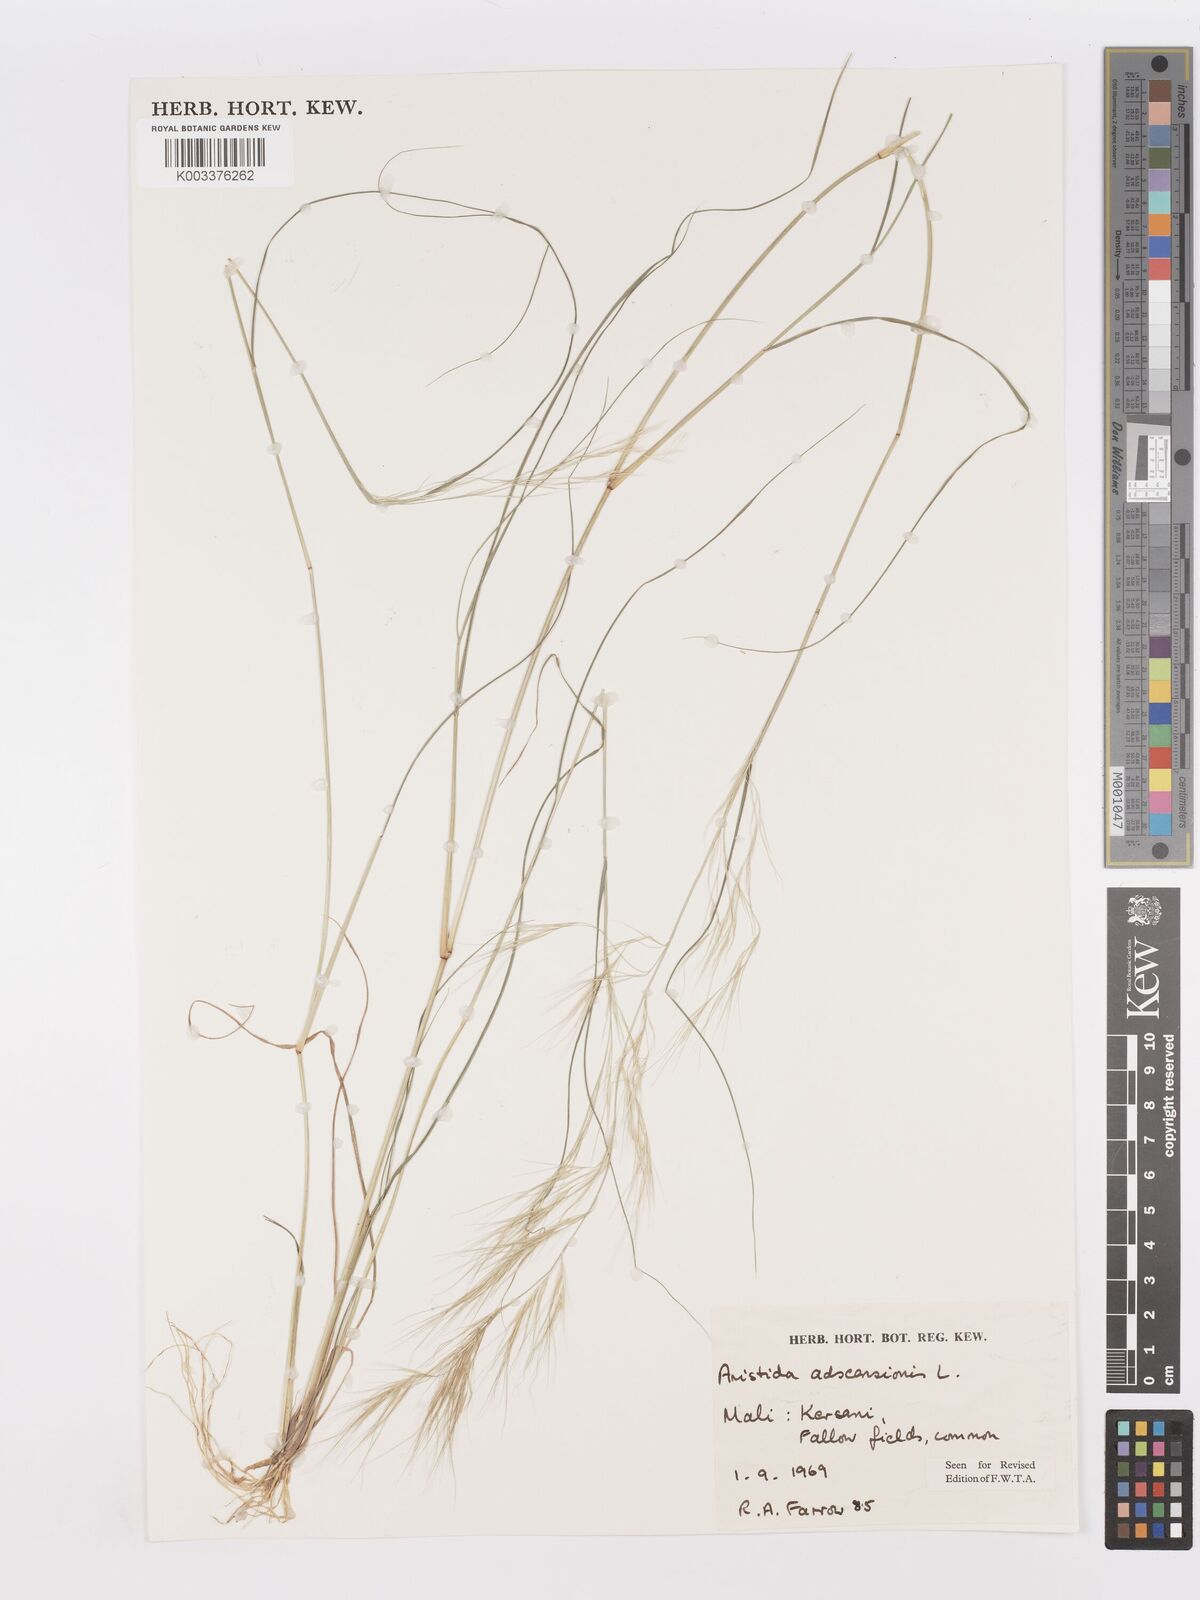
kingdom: Plantae
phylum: Tracheophyta
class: Liliopsida
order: Poales
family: Poaceae
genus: Aristida
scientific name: Aristida adscensionis
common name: Sixweeks threeawn
